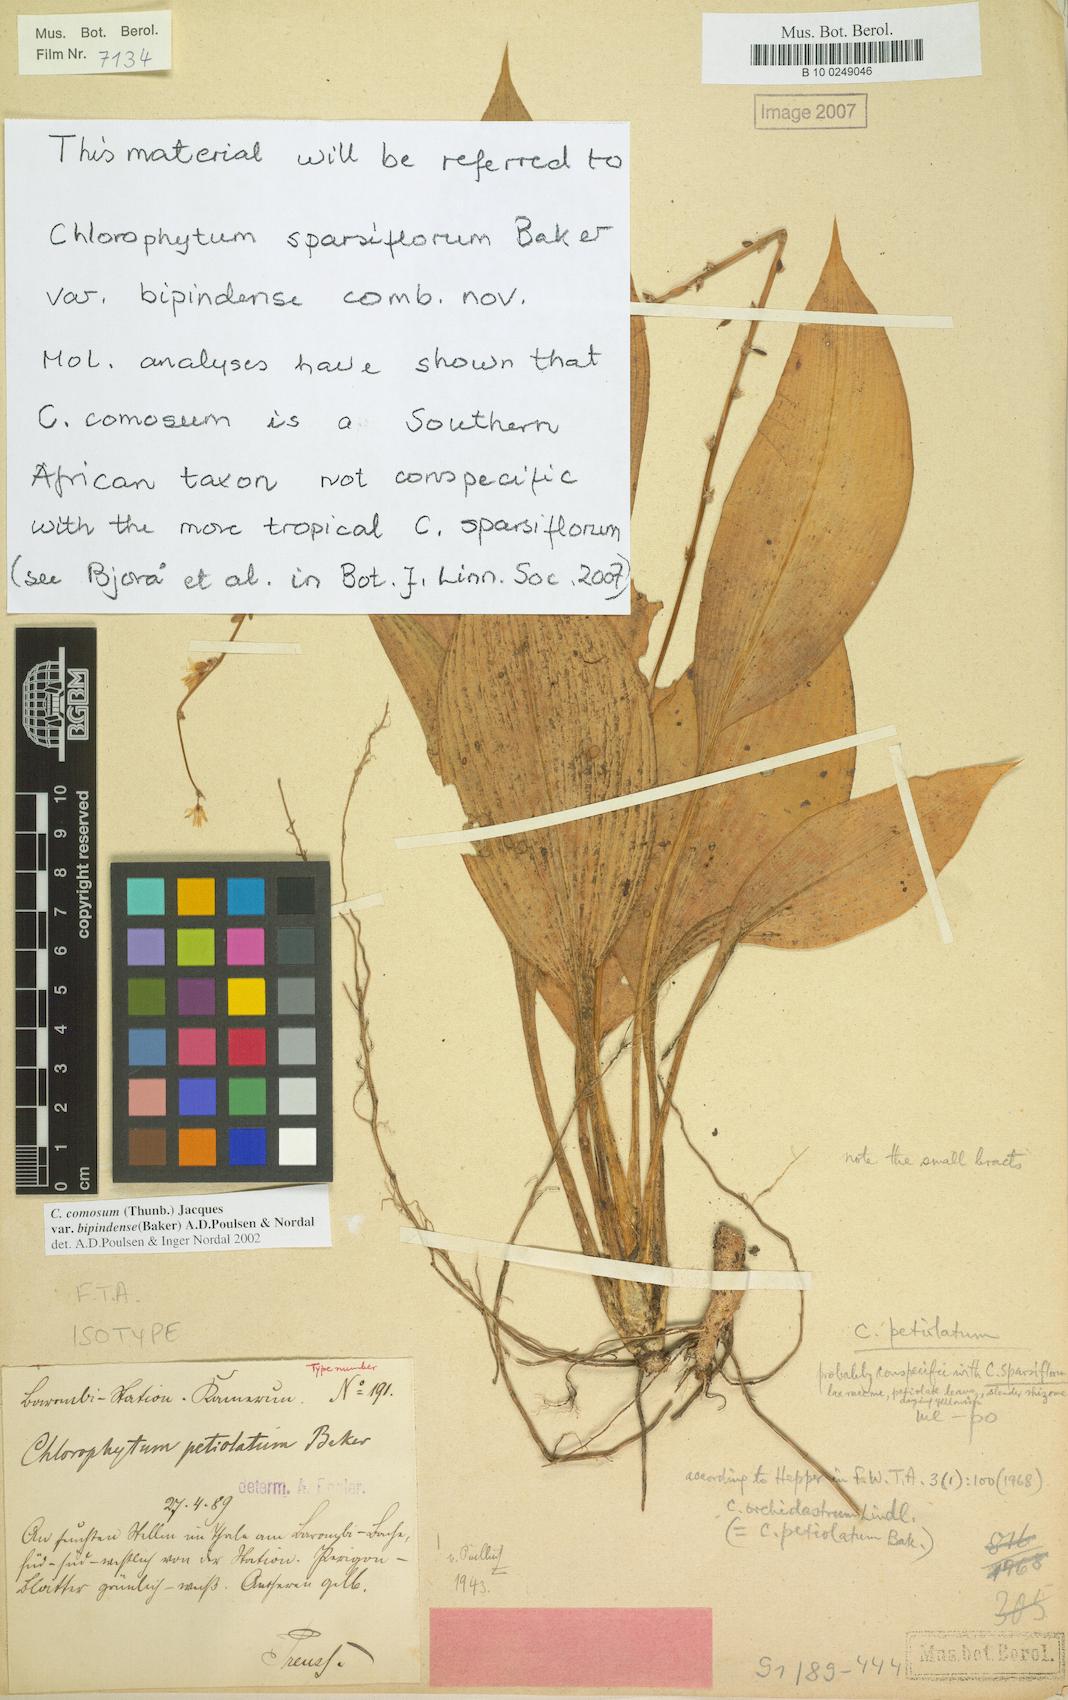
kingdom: Plantae
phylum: Tracheophyta
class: Liliopsida
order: Asparagales
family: Asparagaceae
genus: Chlorophytum
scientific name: Chlorophytum sparsiflorum
